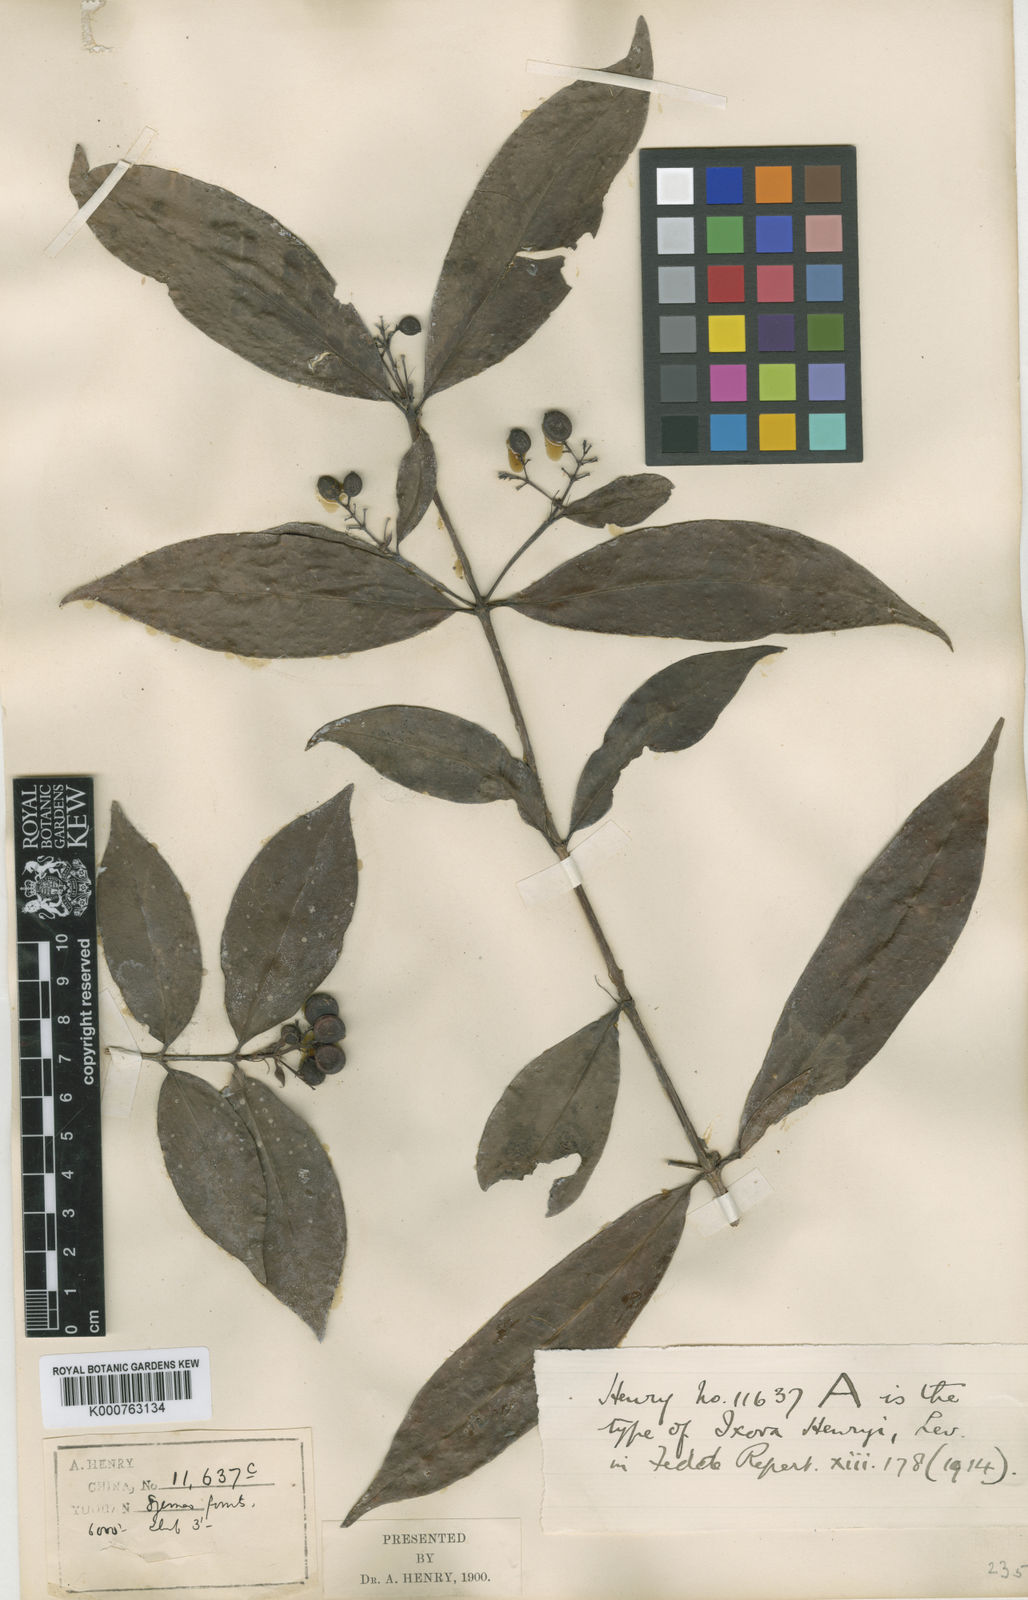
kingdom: Plantae
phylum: Tracheophyta
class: Magnoliopsida
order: Gentianales
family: Rubiaceae
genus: Ixora
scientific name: Ixora
